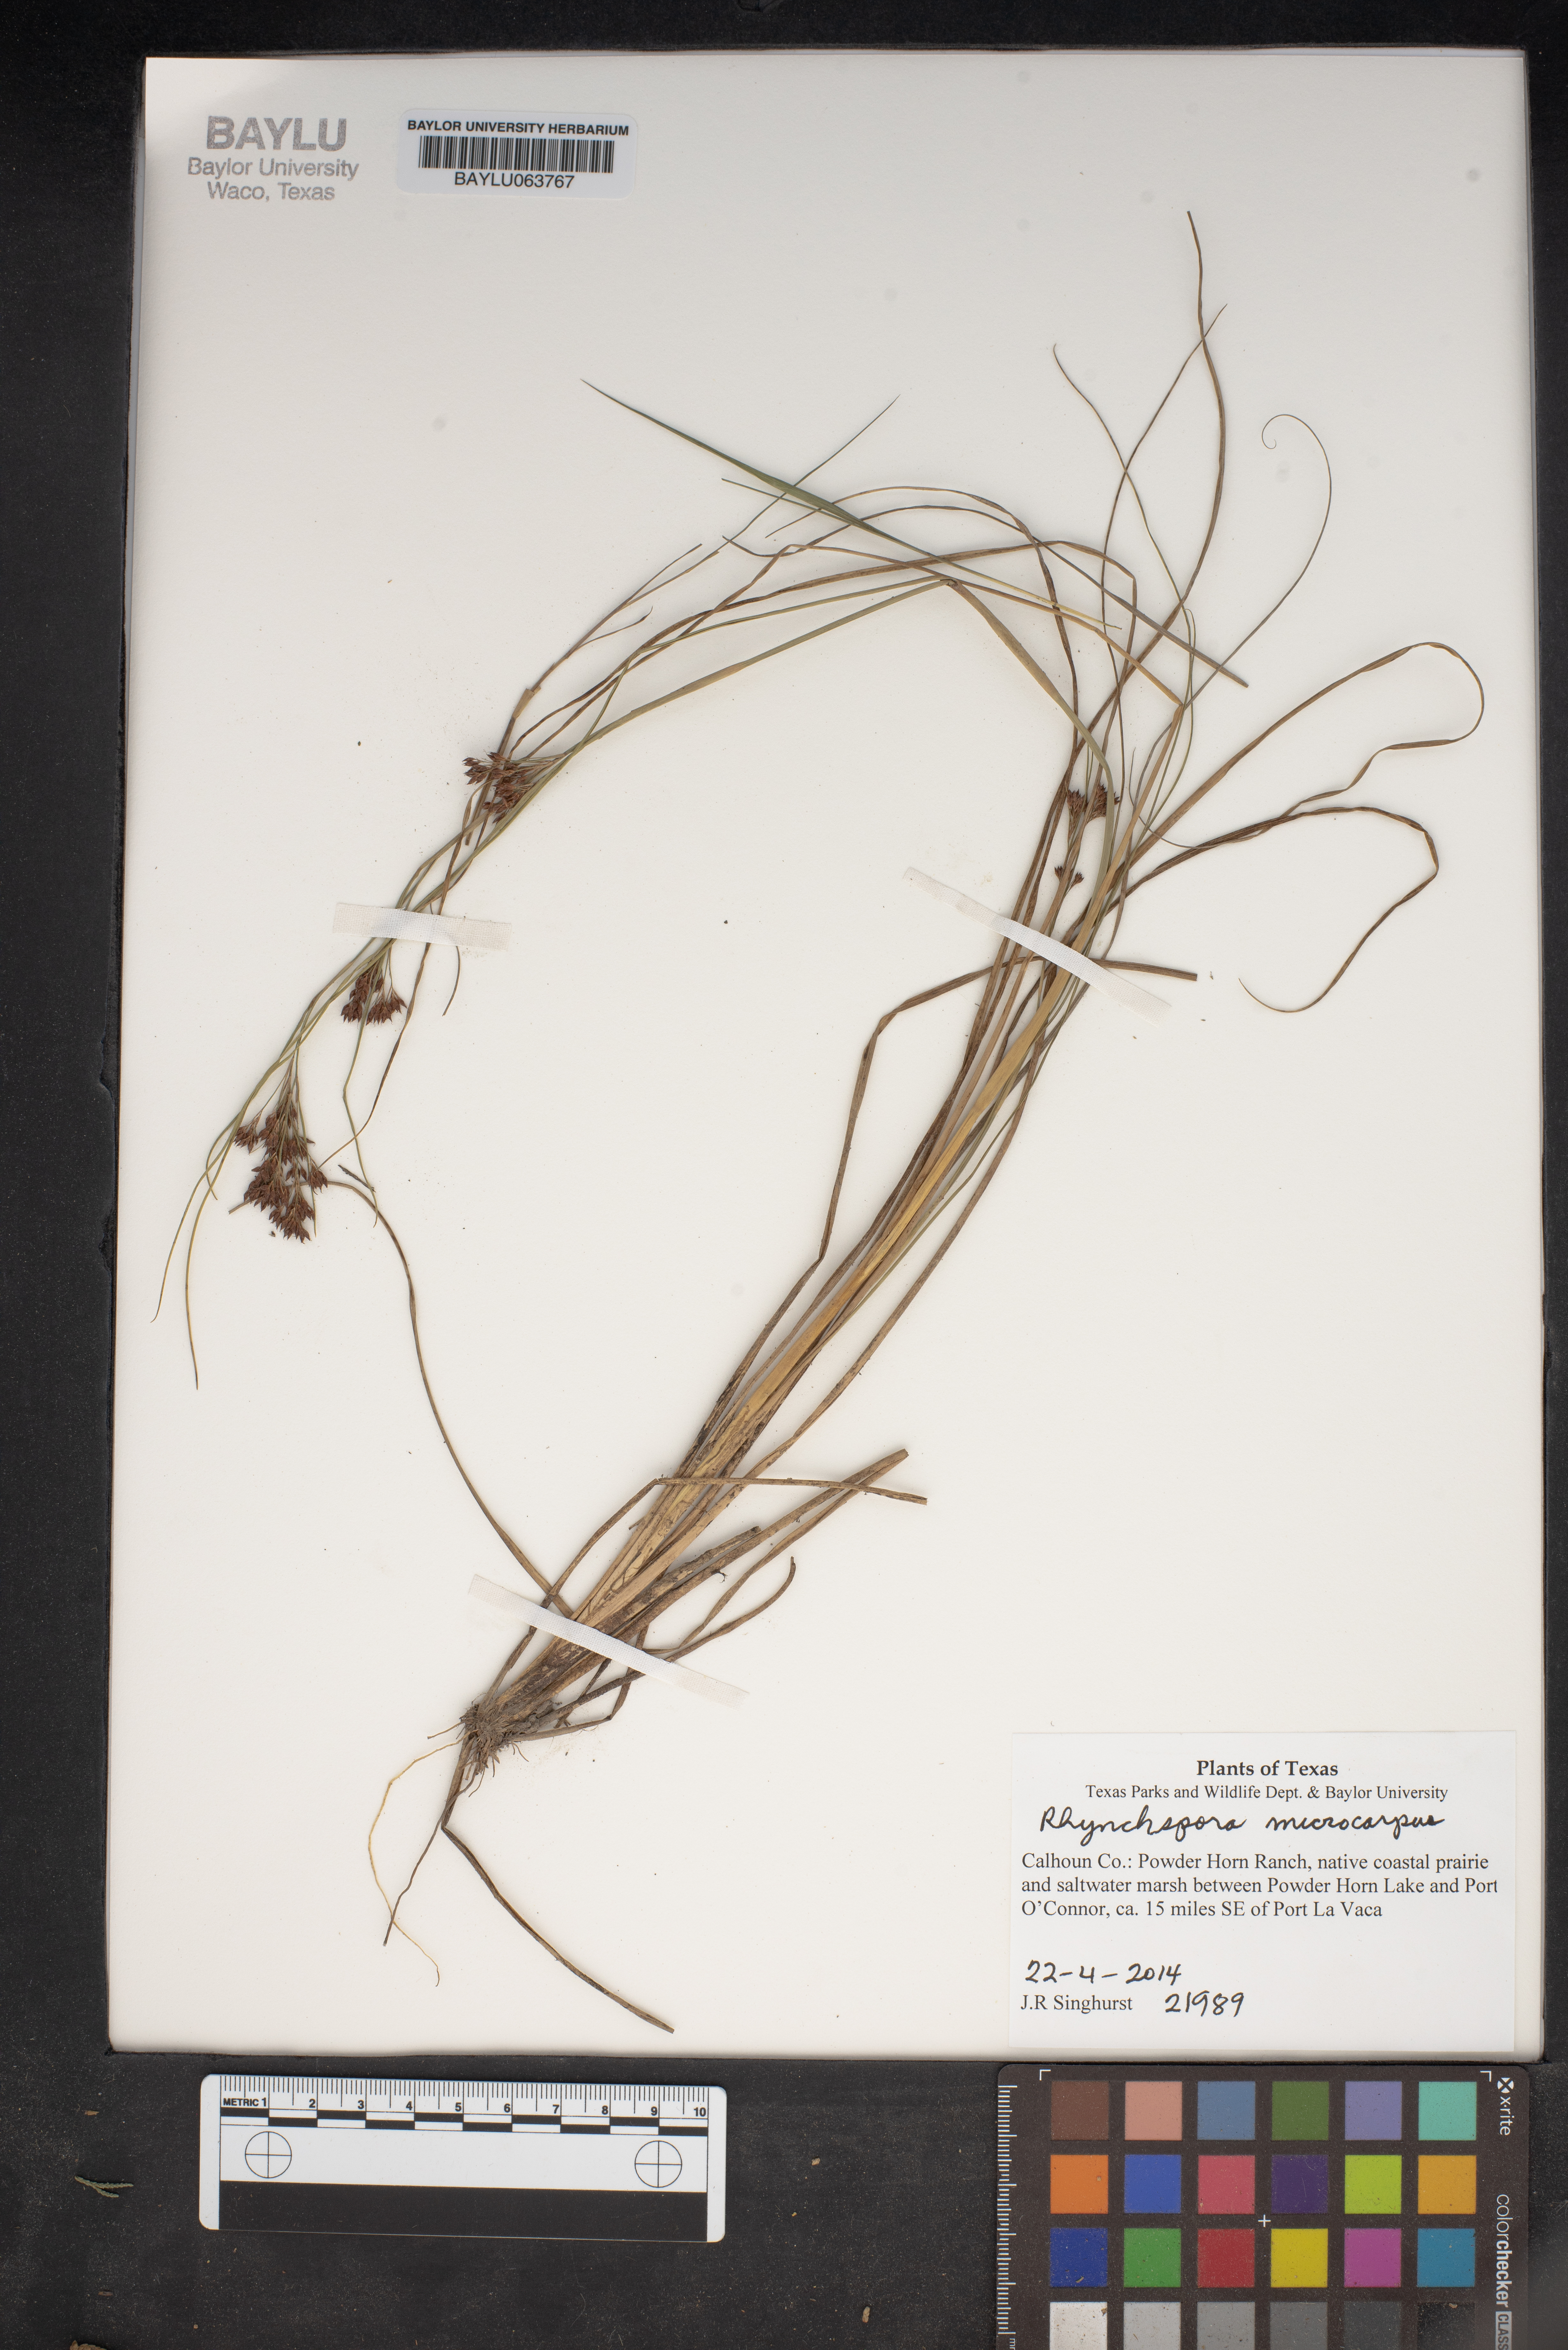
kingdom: Plantae
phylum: Tracheophyta
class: Liliopsida
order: Poales
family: Cyperaceae
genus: Rhynchospora
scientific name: Rhynchospora microcarpa
